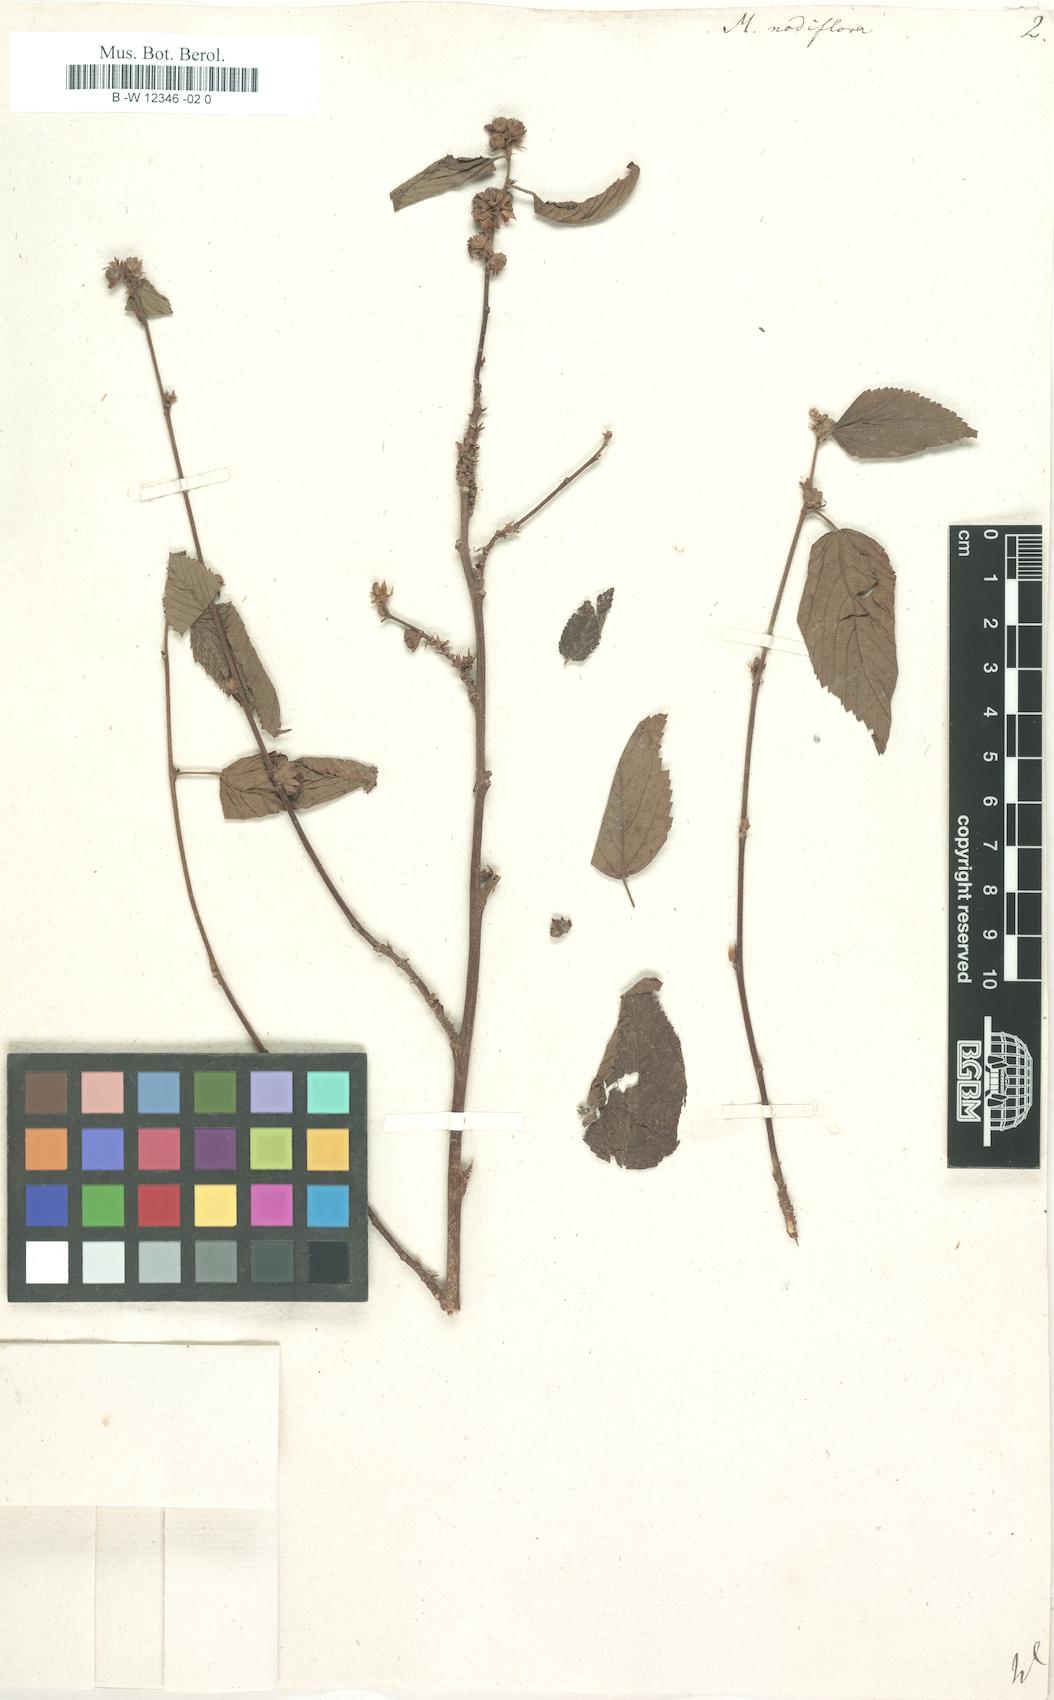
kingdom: Plantae
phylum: Tracheophyta
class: Magnoliopsida
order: Malvales
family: Malvaceae
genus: Melochia
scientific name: Melochia nodiflora
